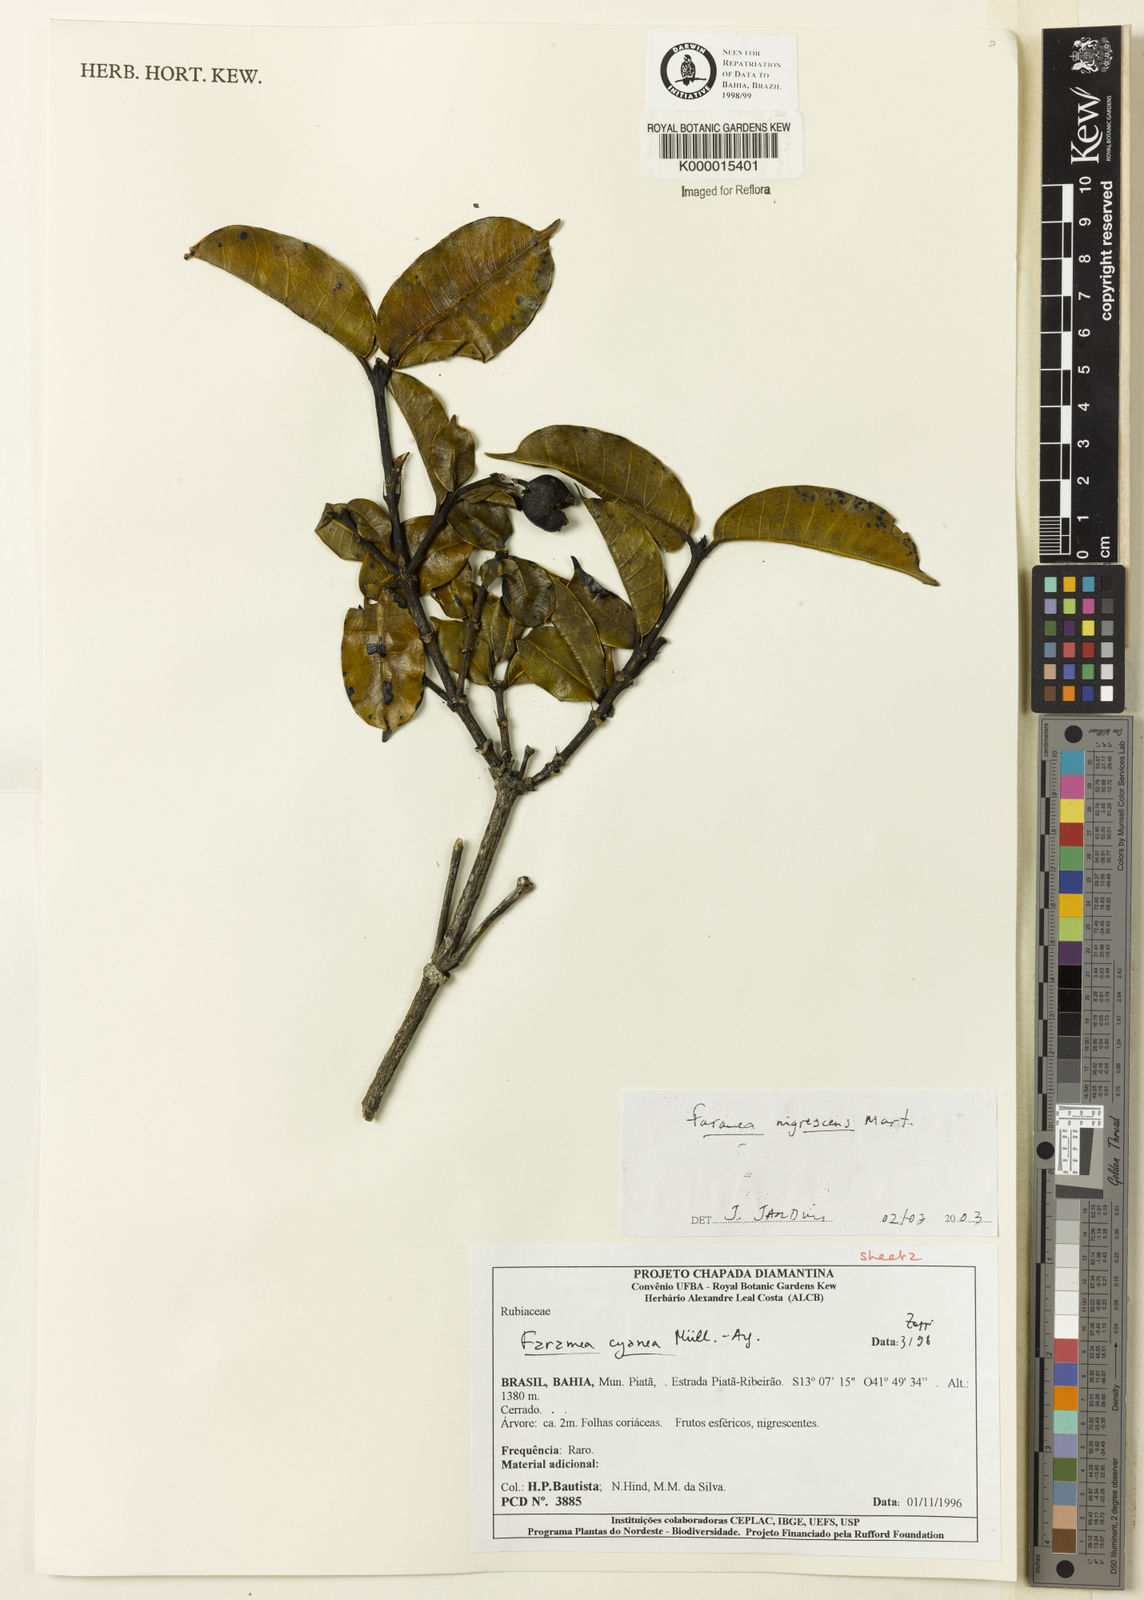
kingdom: Plantae
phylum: Tracheophyta
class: Magnoliopsida
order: Gentianales
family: Rubiaceae
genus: Faramea
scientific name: Faramea nigrescens
